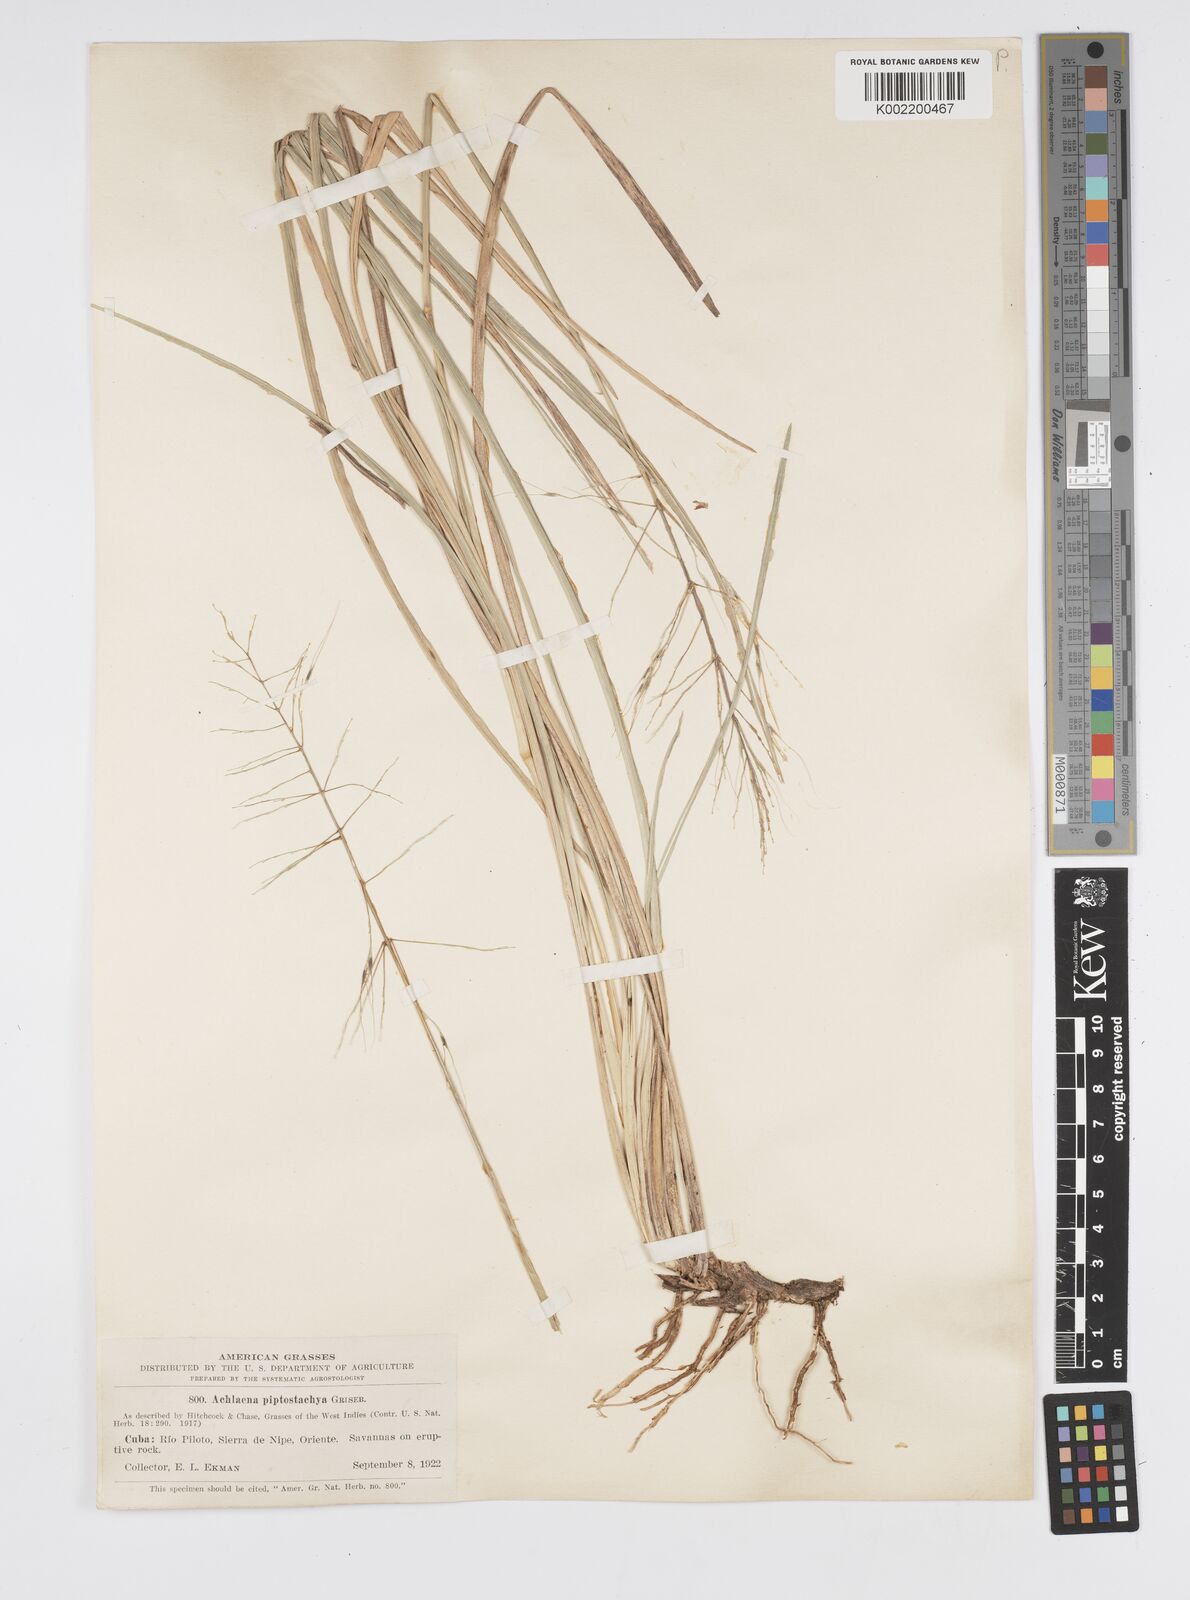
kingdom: Plantae
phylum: Tracheophyta
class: Liliopsida
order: Poales
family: Poaceae
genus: Arthropogon
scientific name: Arthropogon piptostachyus
